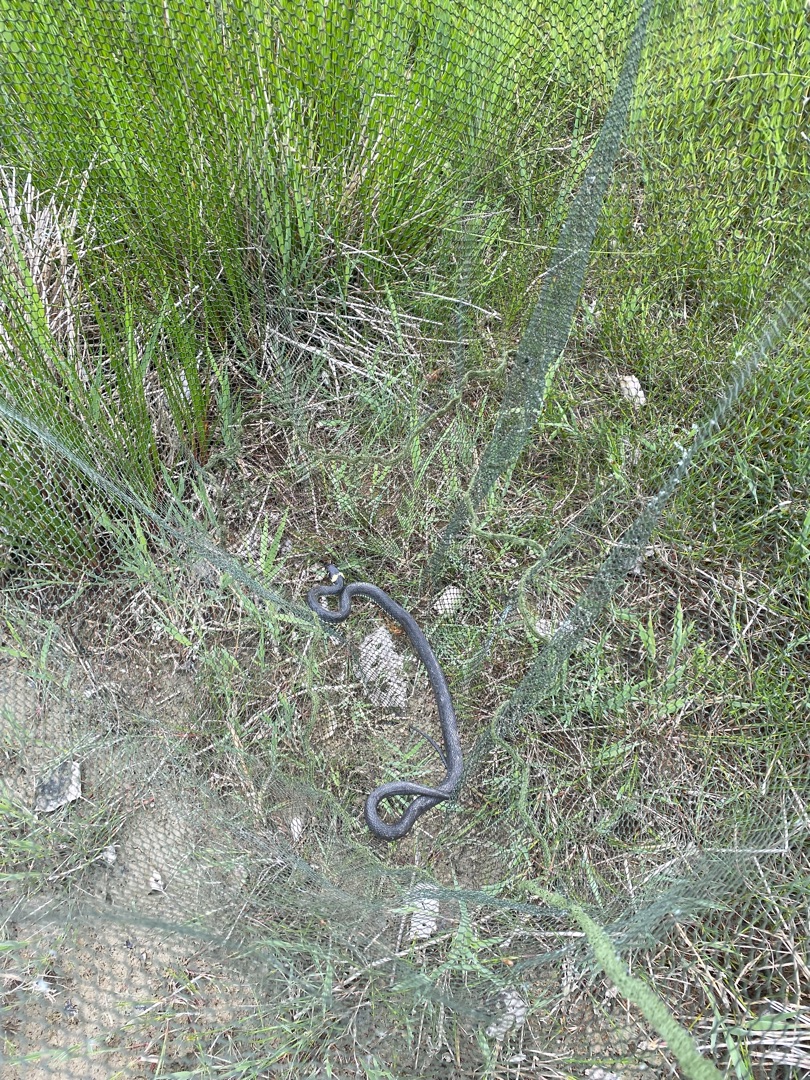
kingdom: Animalia
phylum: Chordata
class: Squamata
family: Colubridae
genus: Natrix
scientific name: Natrix natrix
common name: Snog
